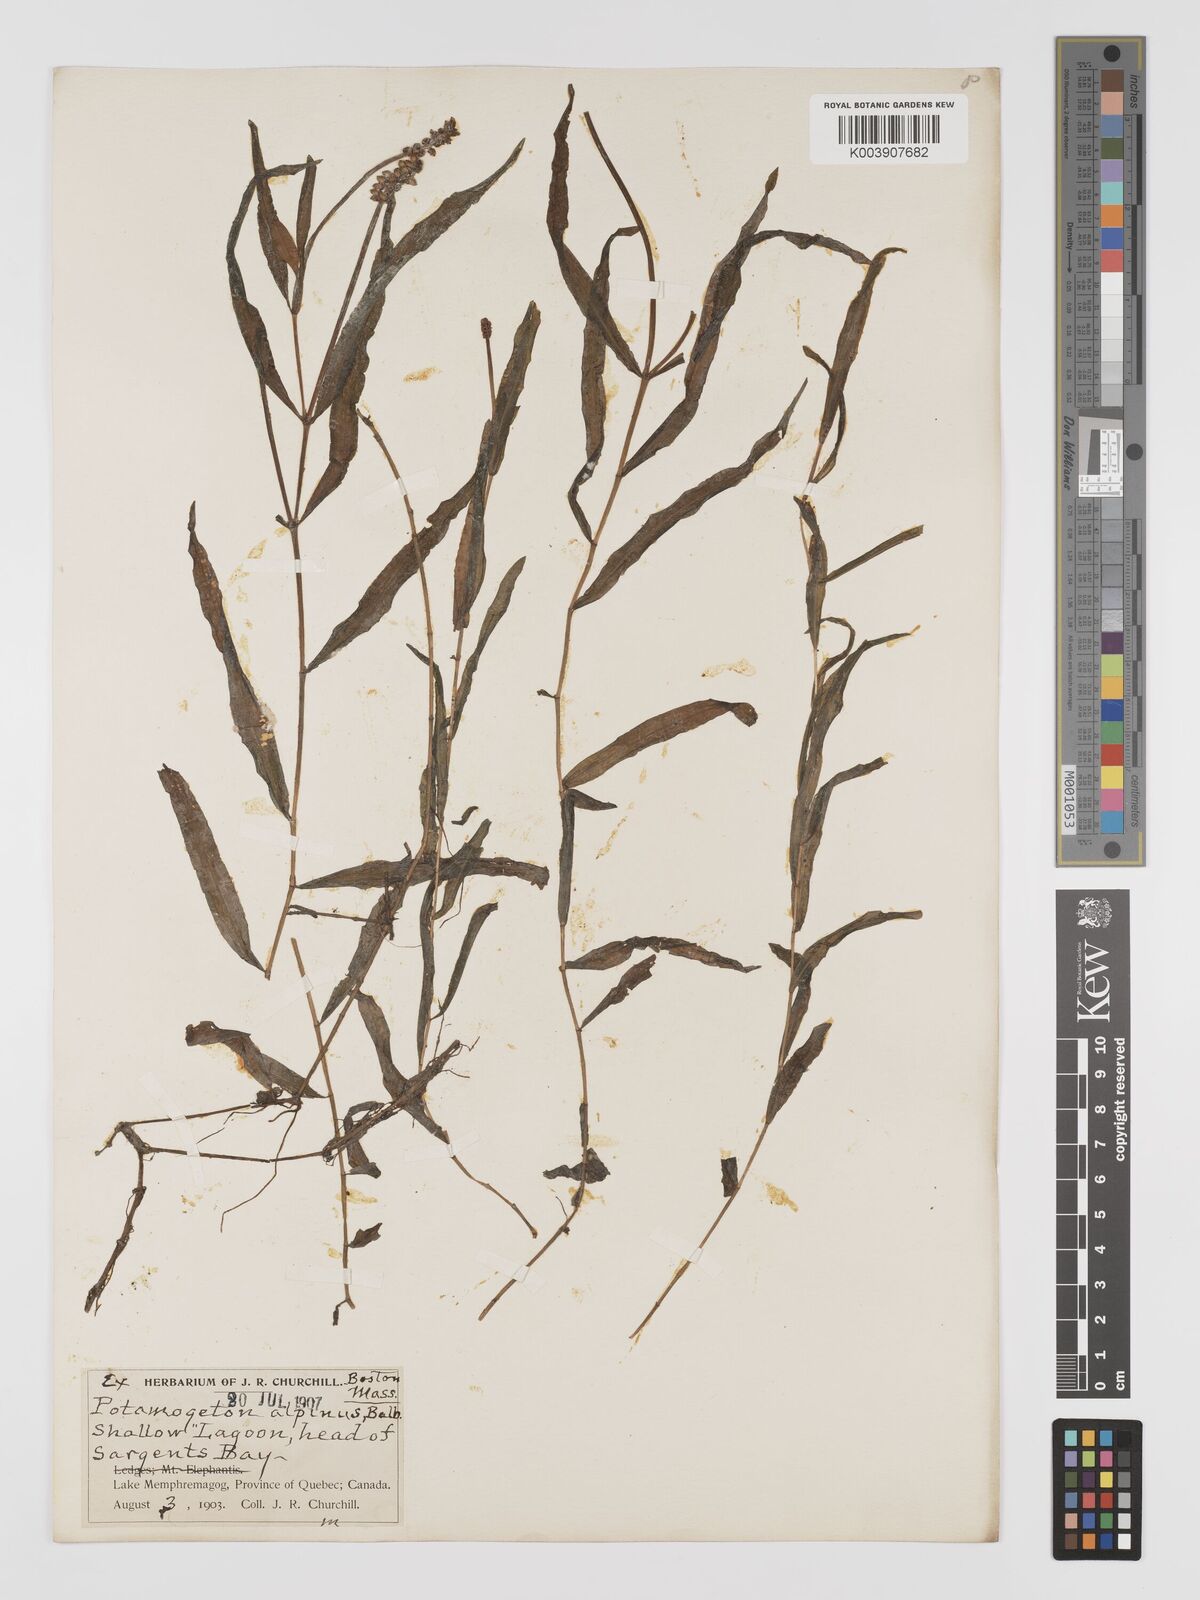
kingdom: Plantae
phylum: Tracheophyta
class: Liliopsida
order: Alismatales
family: Potamogetonaceae
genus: Potamogeton
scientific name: Potamogeton alpinus
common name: Red pondweed
